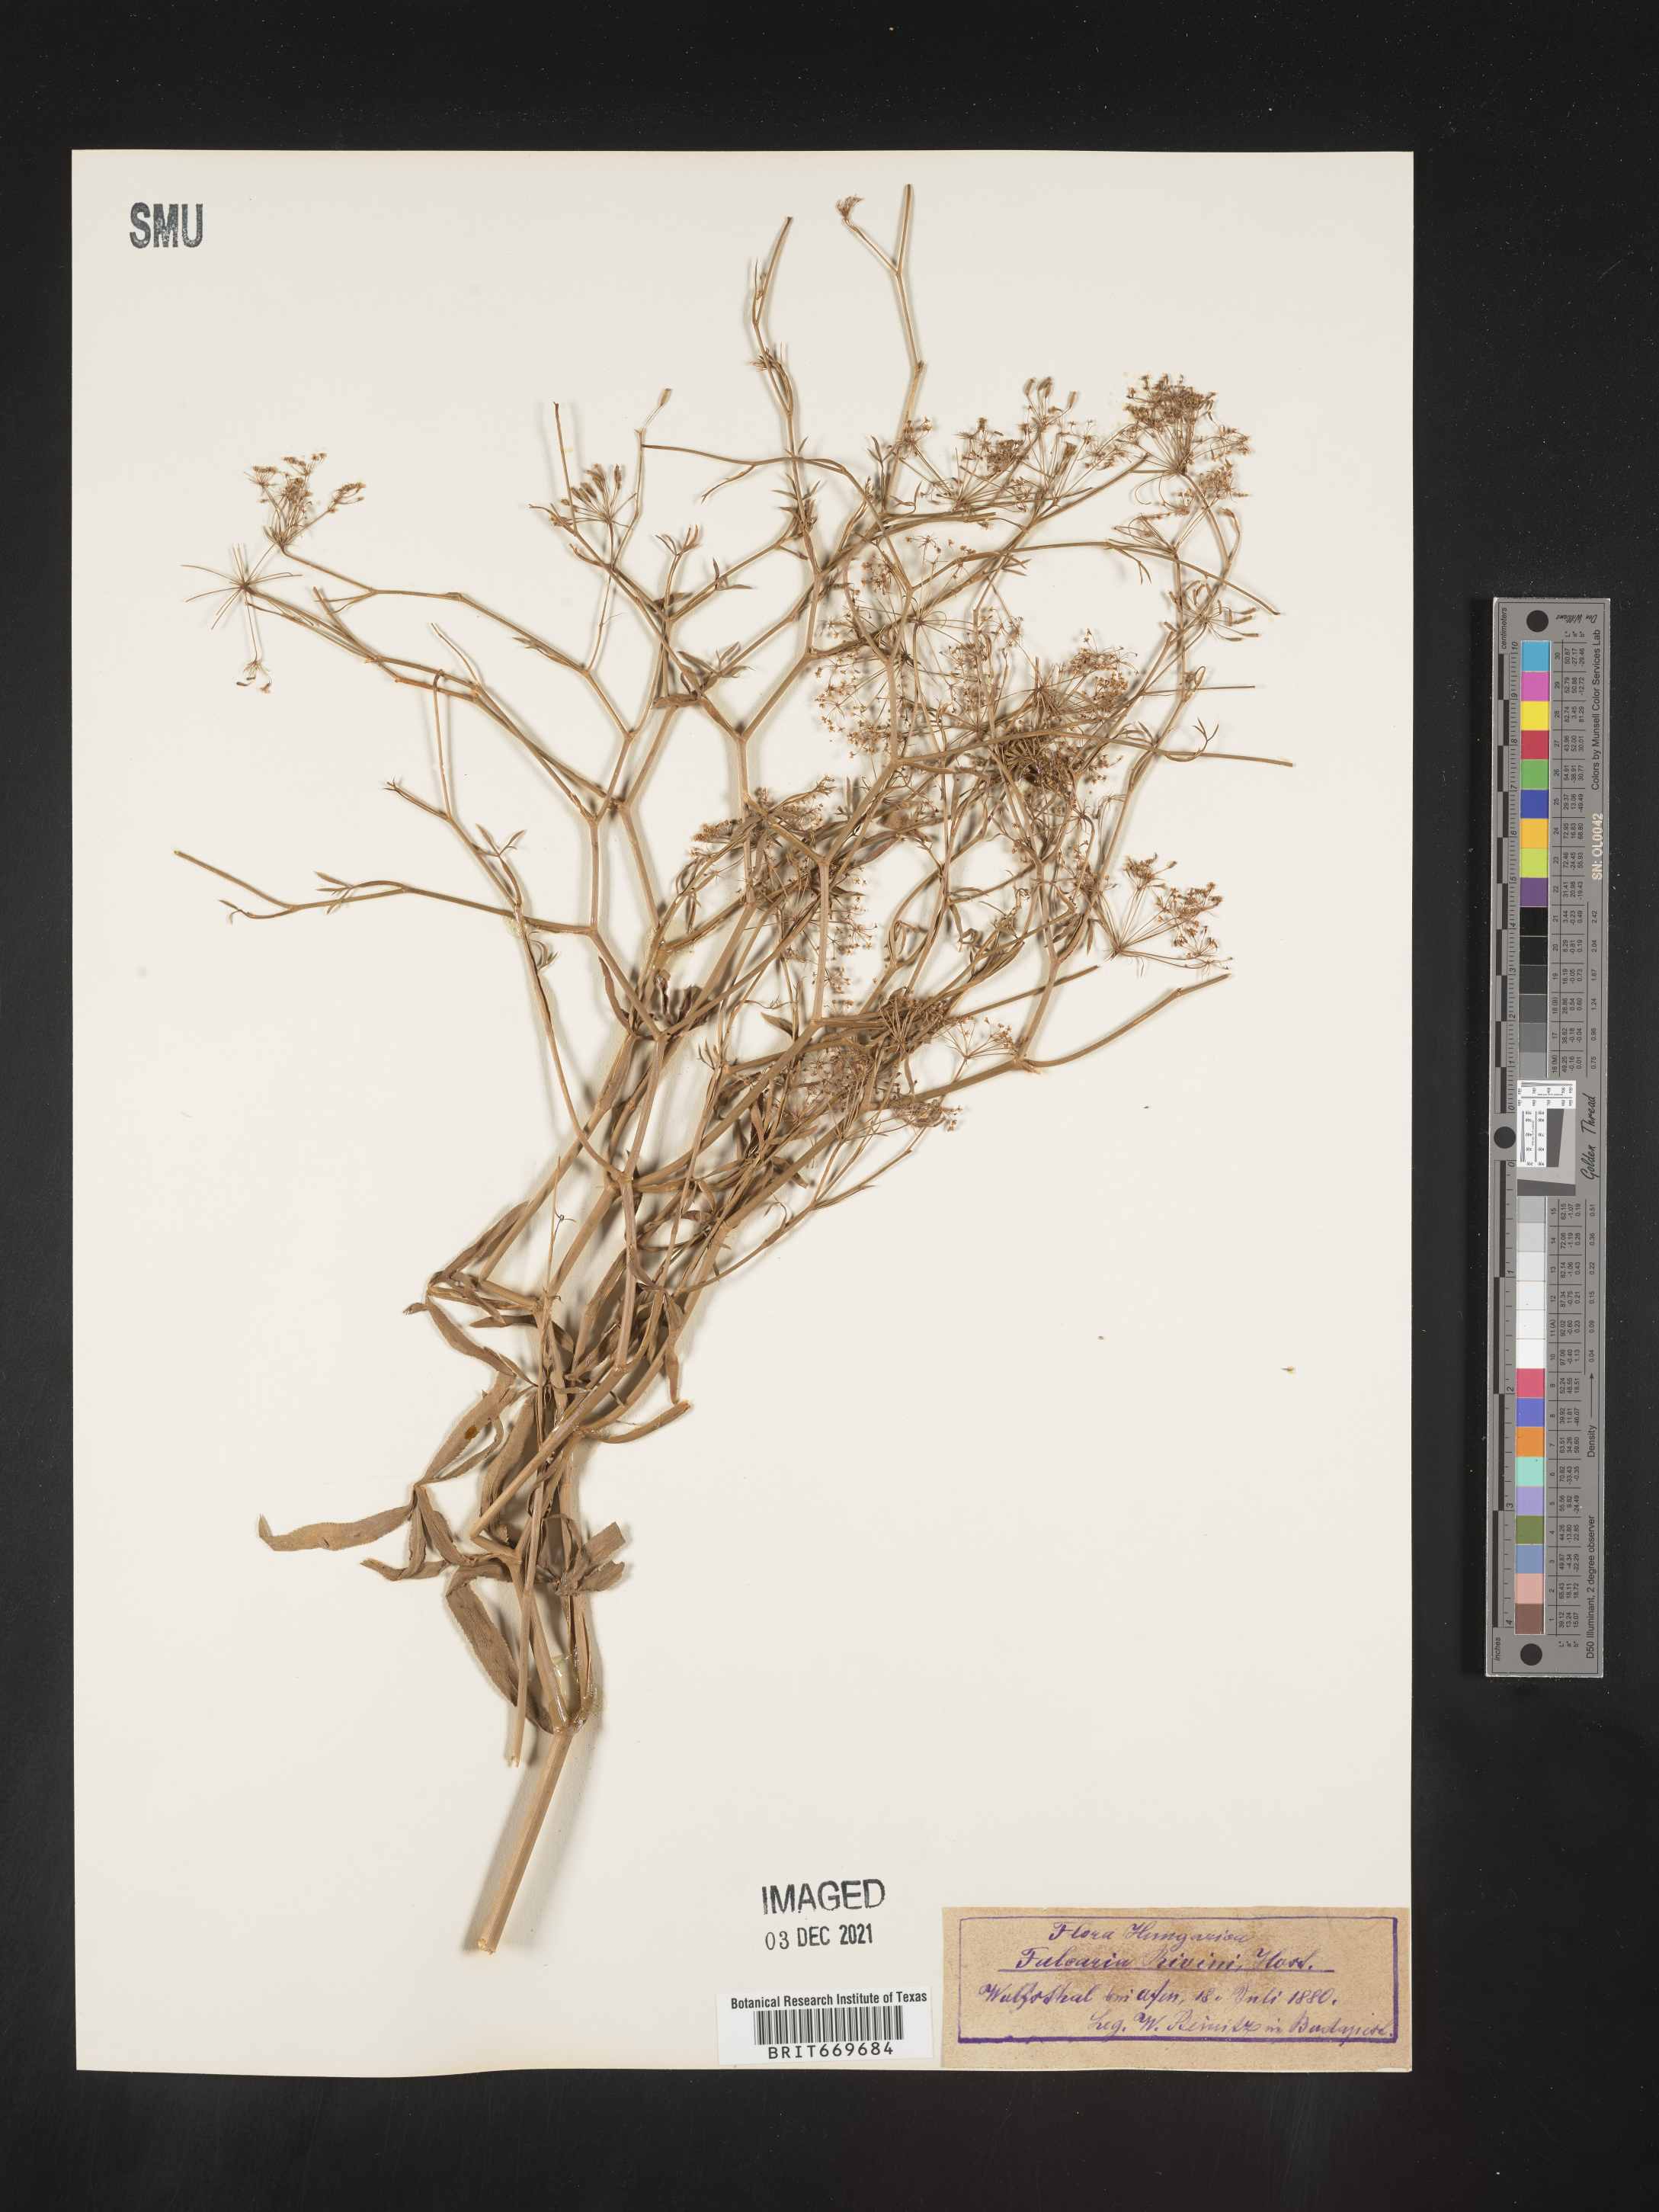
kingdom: Plantae
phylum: Tracheophyta
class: Magnoliopsida
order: Apiales
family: Apiaceae
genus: Falcaria
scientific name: Falcaria
